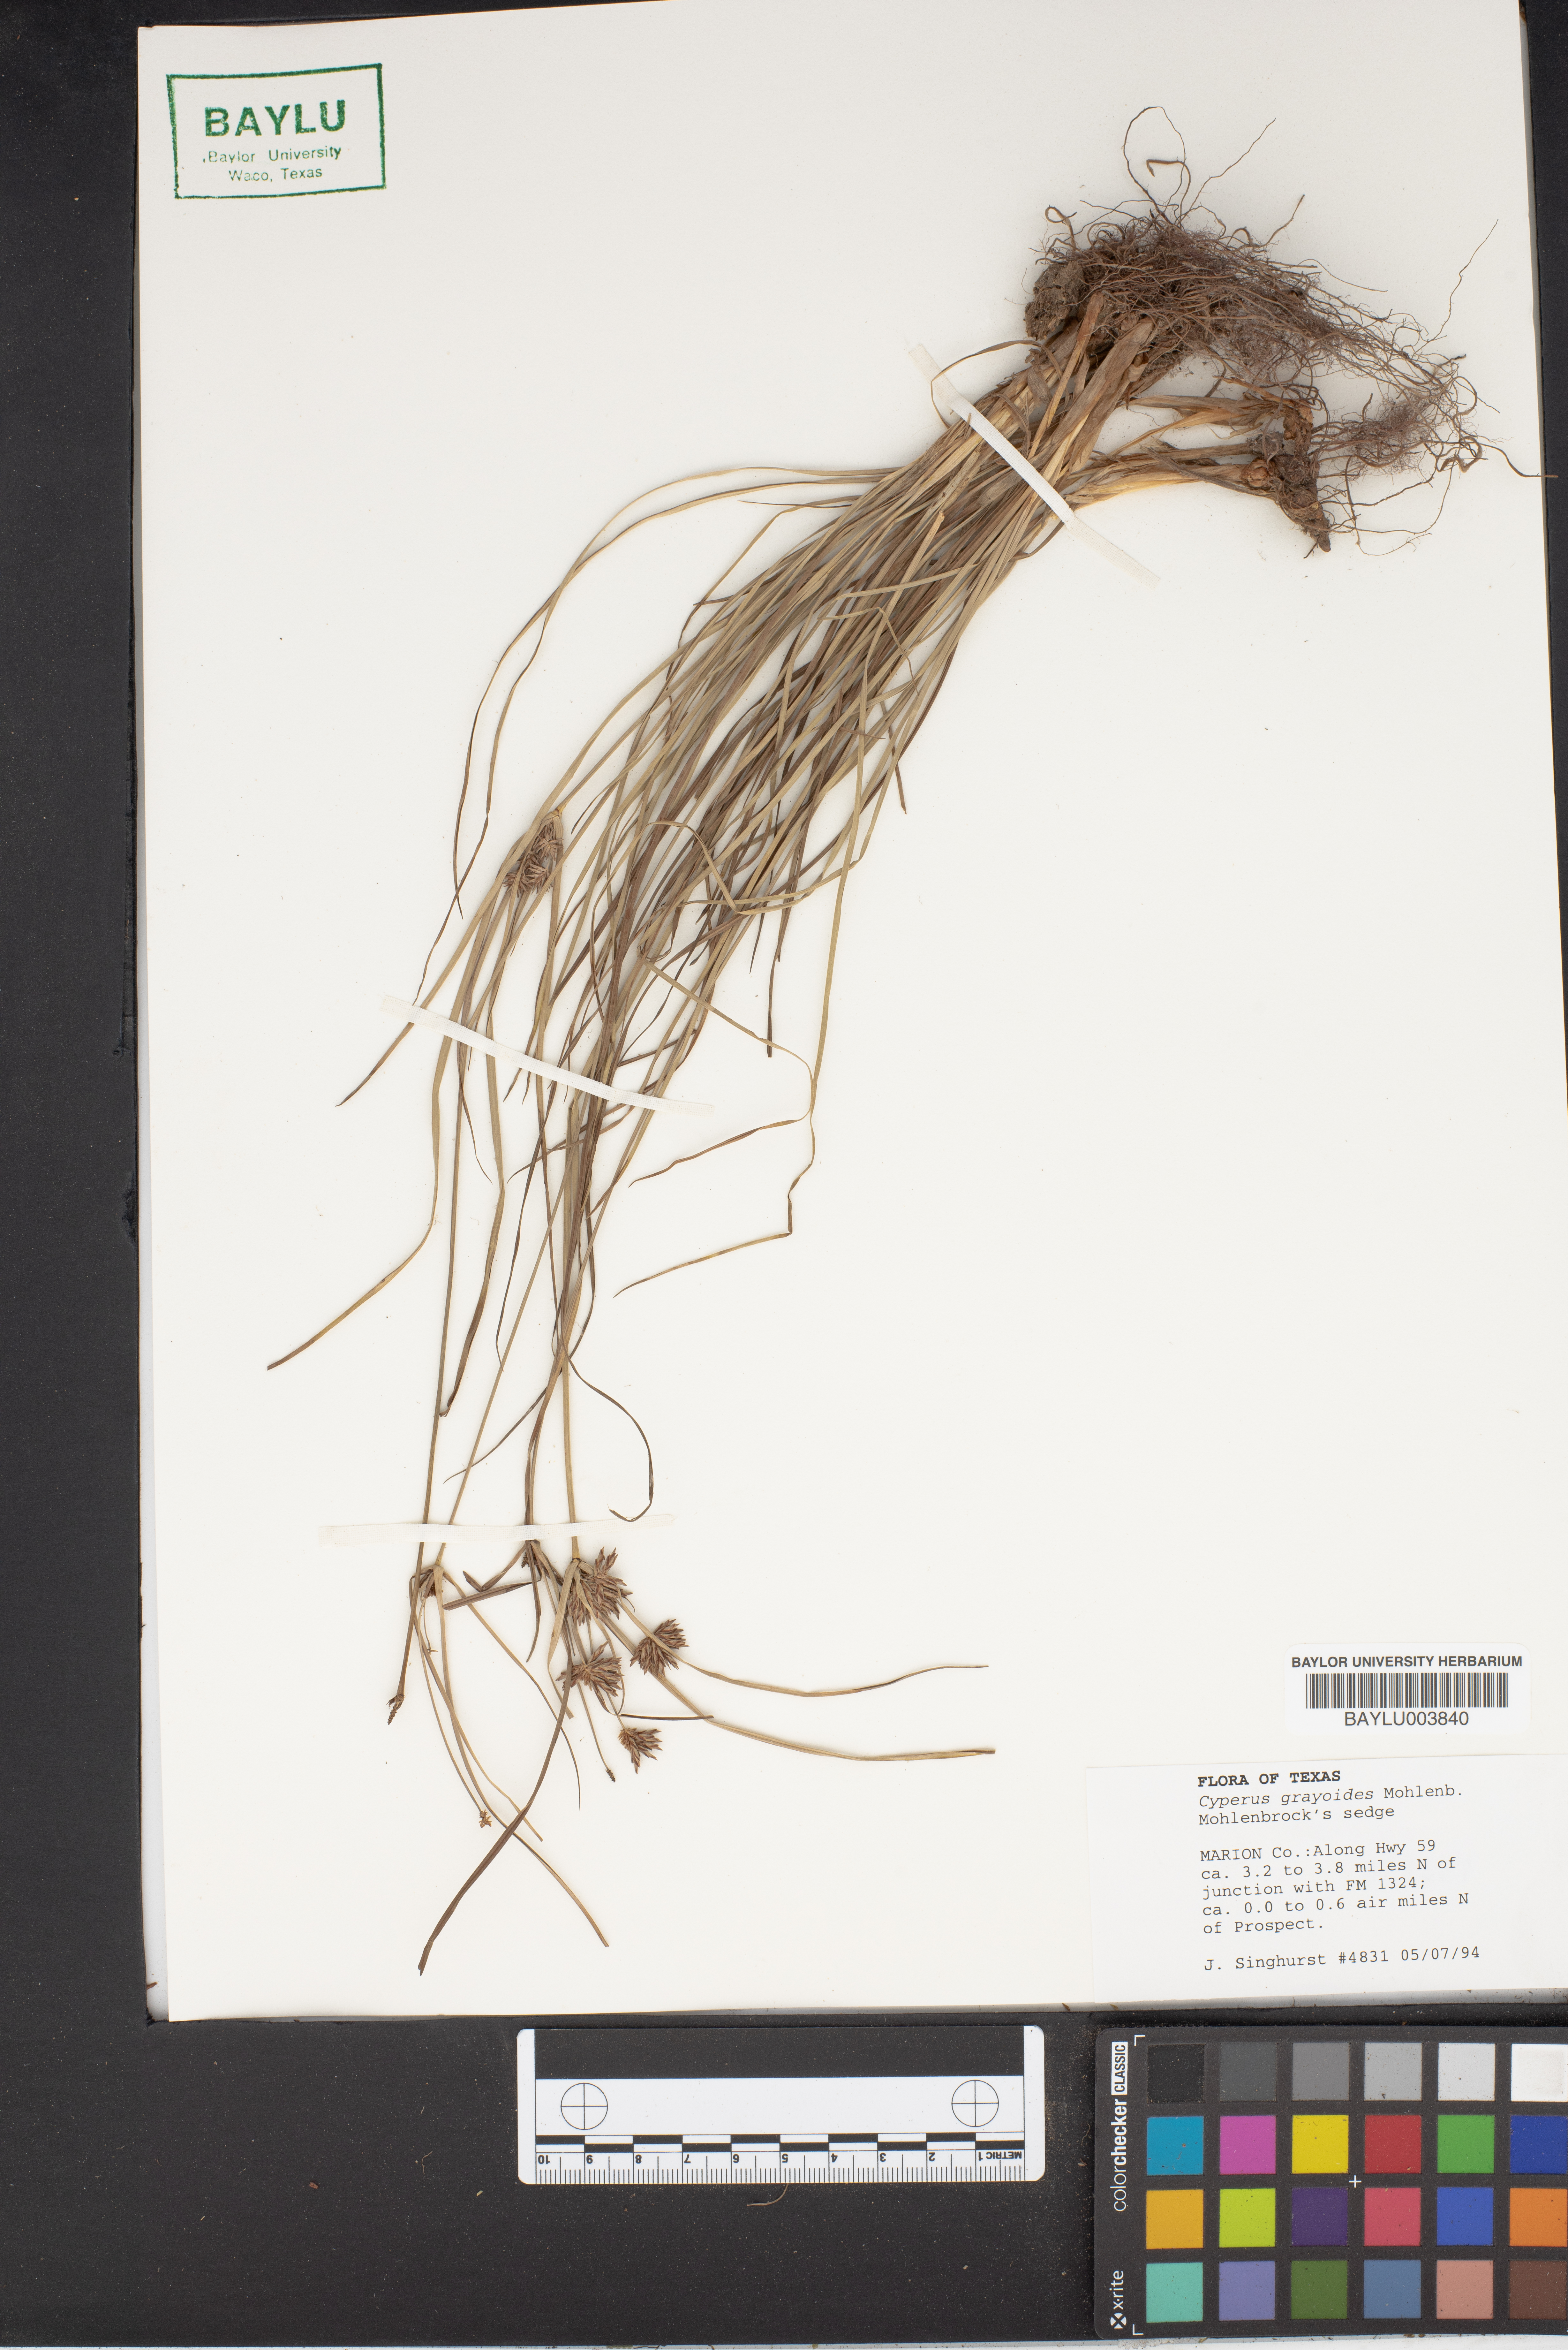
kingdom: Plantae
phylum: Tracheophyta
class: Liliopsida
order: Poales
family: Cyperaceae
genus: Cyperus
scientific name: Cyperus grayioides
